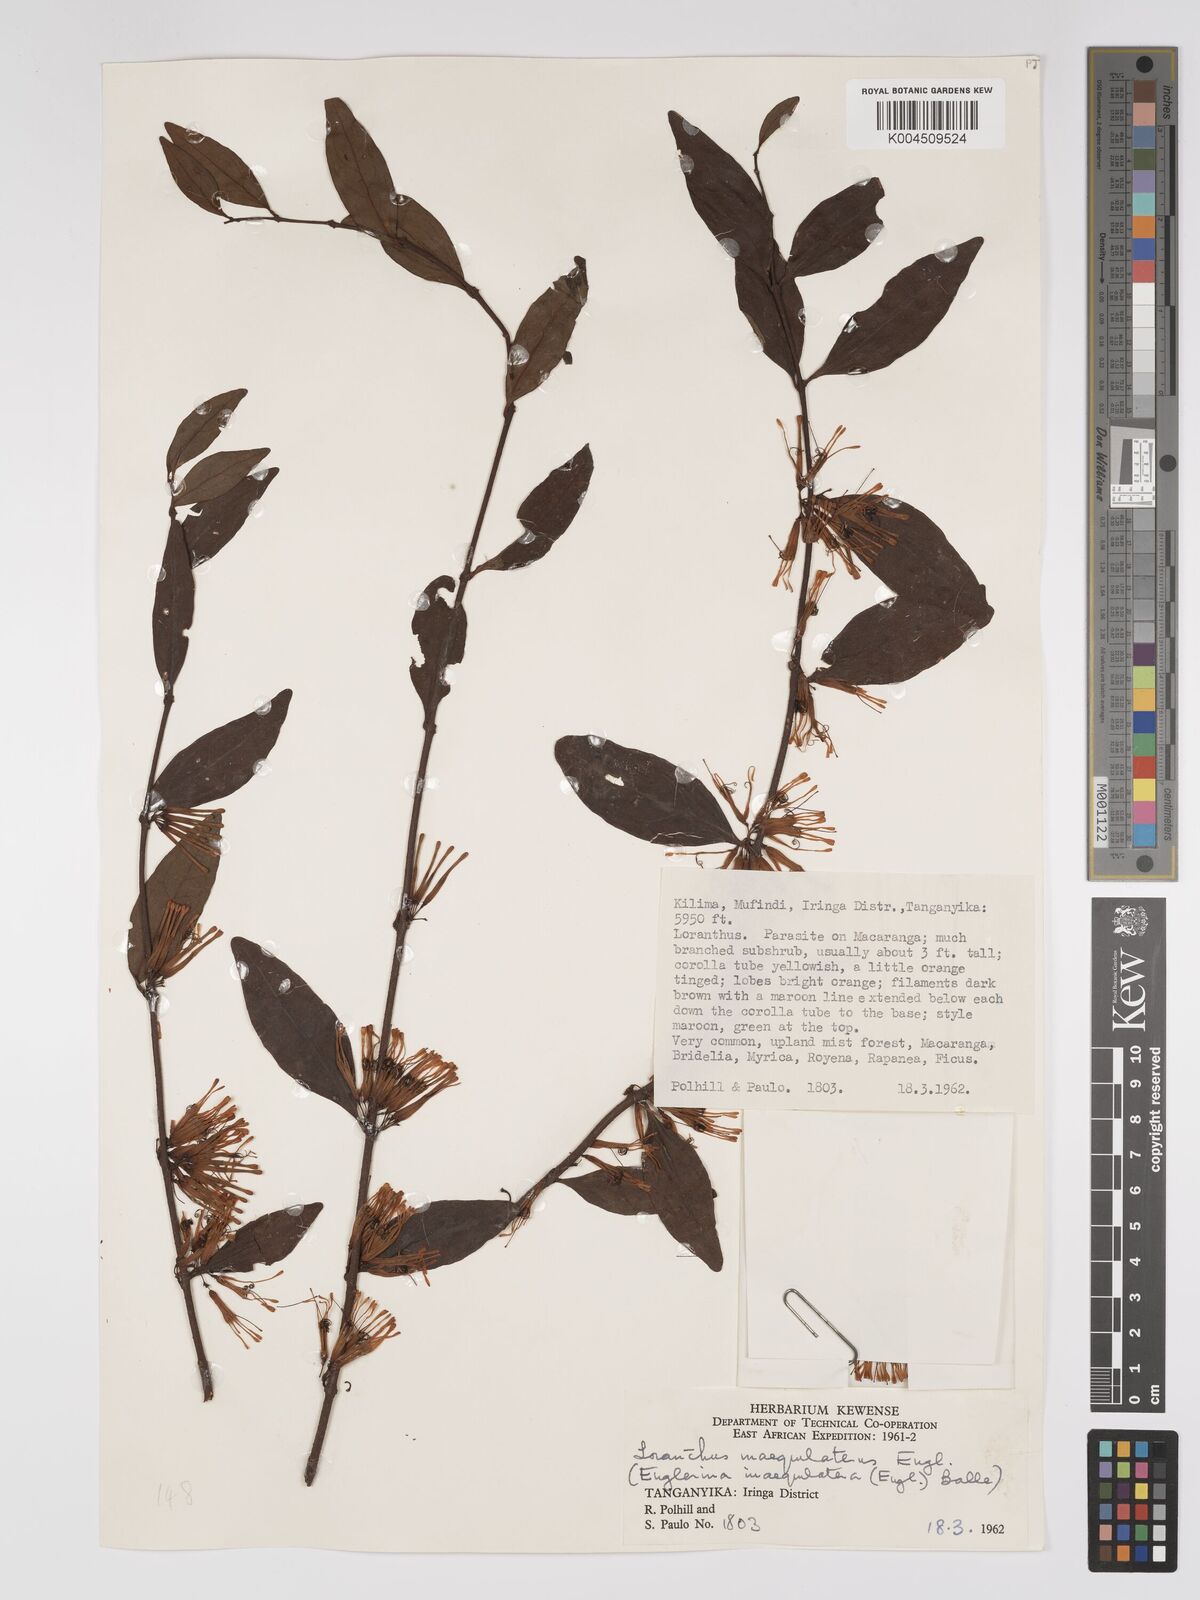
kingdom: Plantae
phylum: Tracheophyta
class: Magnoliopsida
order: Santalales
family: Loranthaceae
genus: Englerina
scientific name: Englerina inaequilatera
